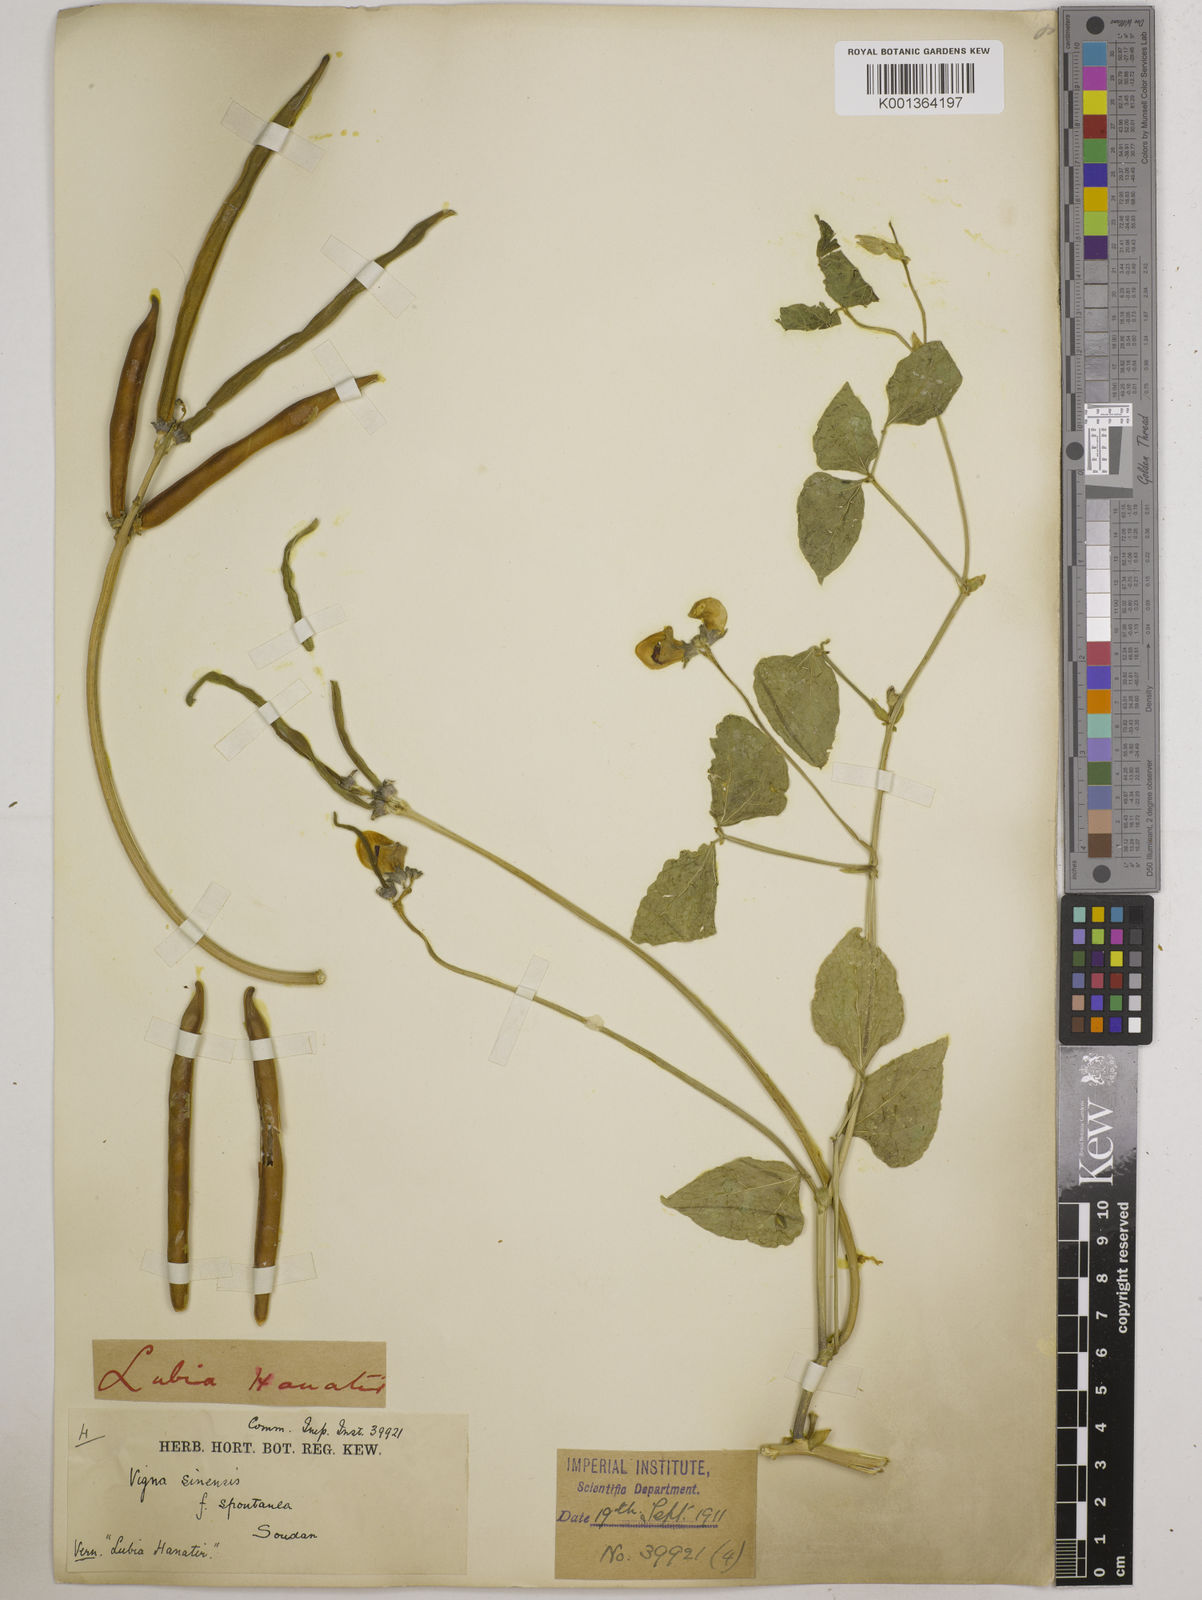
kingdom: Plantae
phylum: Tracheophyta
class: Magnoliopsida
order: Fabales
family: Fabaceae
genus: Vigna
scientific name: Vigna
